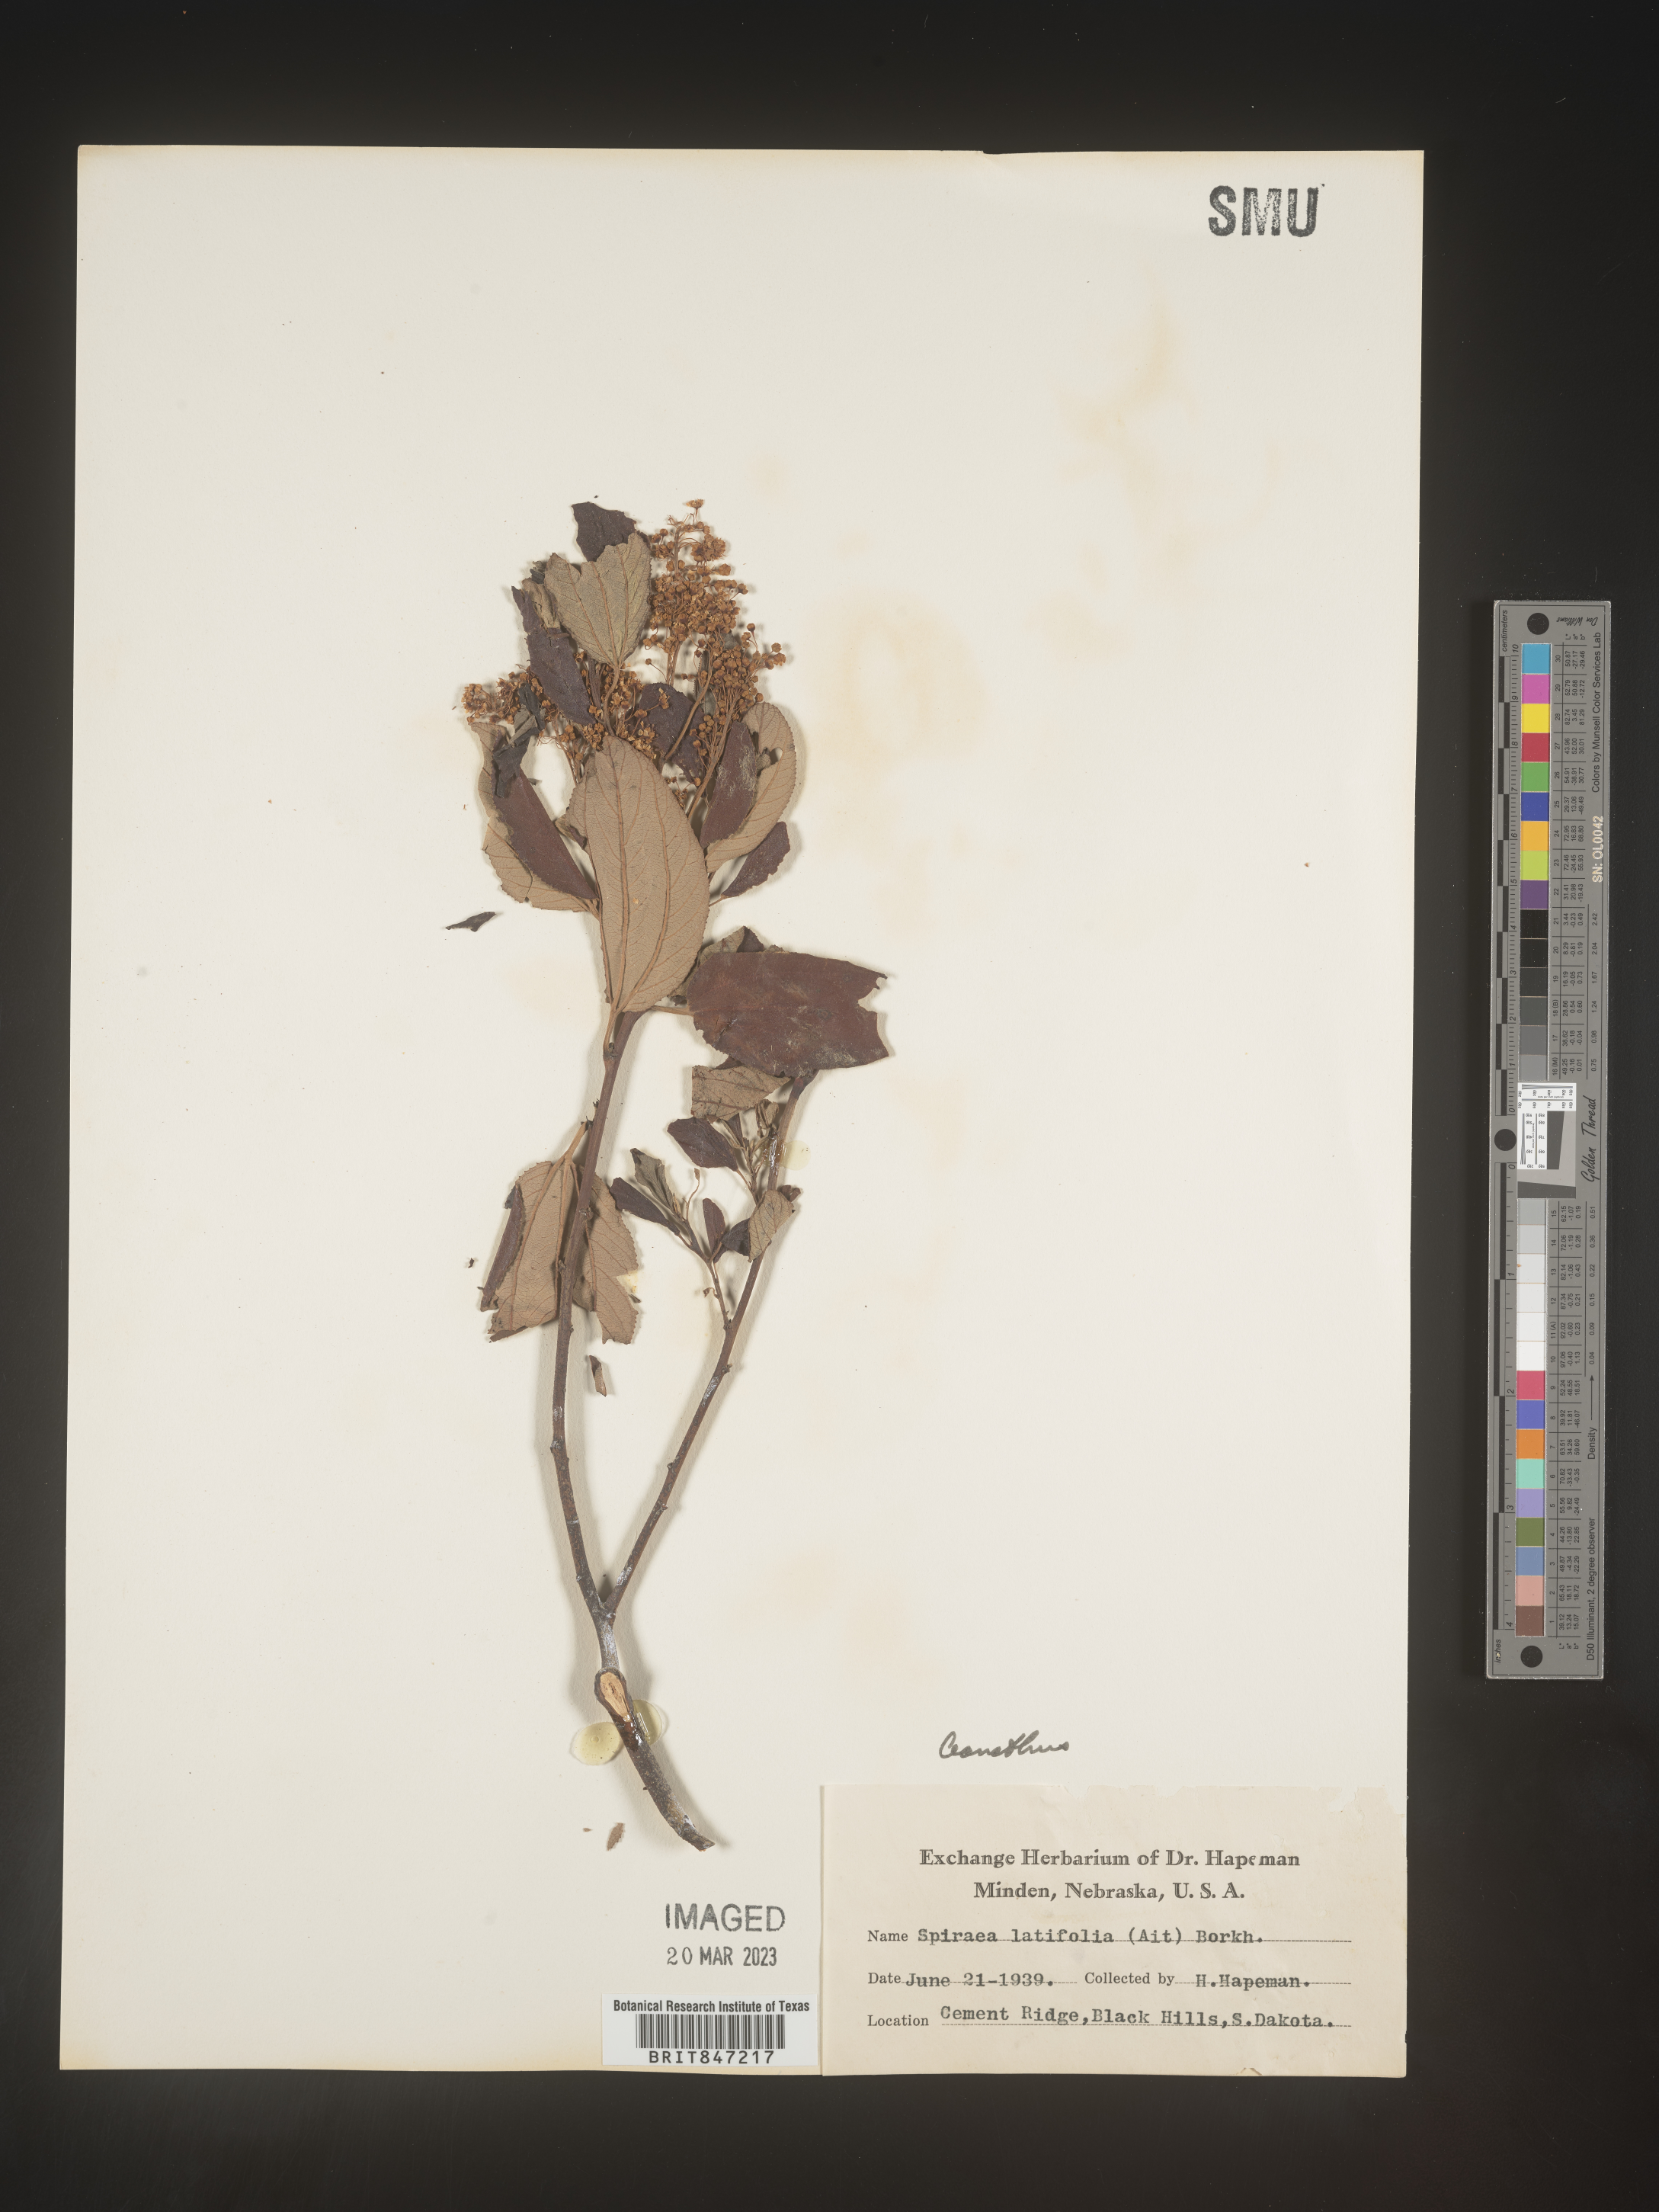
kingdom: Plantae
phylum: Tracheophyta
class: Magnoliopsida
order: Rosales
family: Rhamnaceae
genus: Ceanothus
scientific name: Ceanothus
